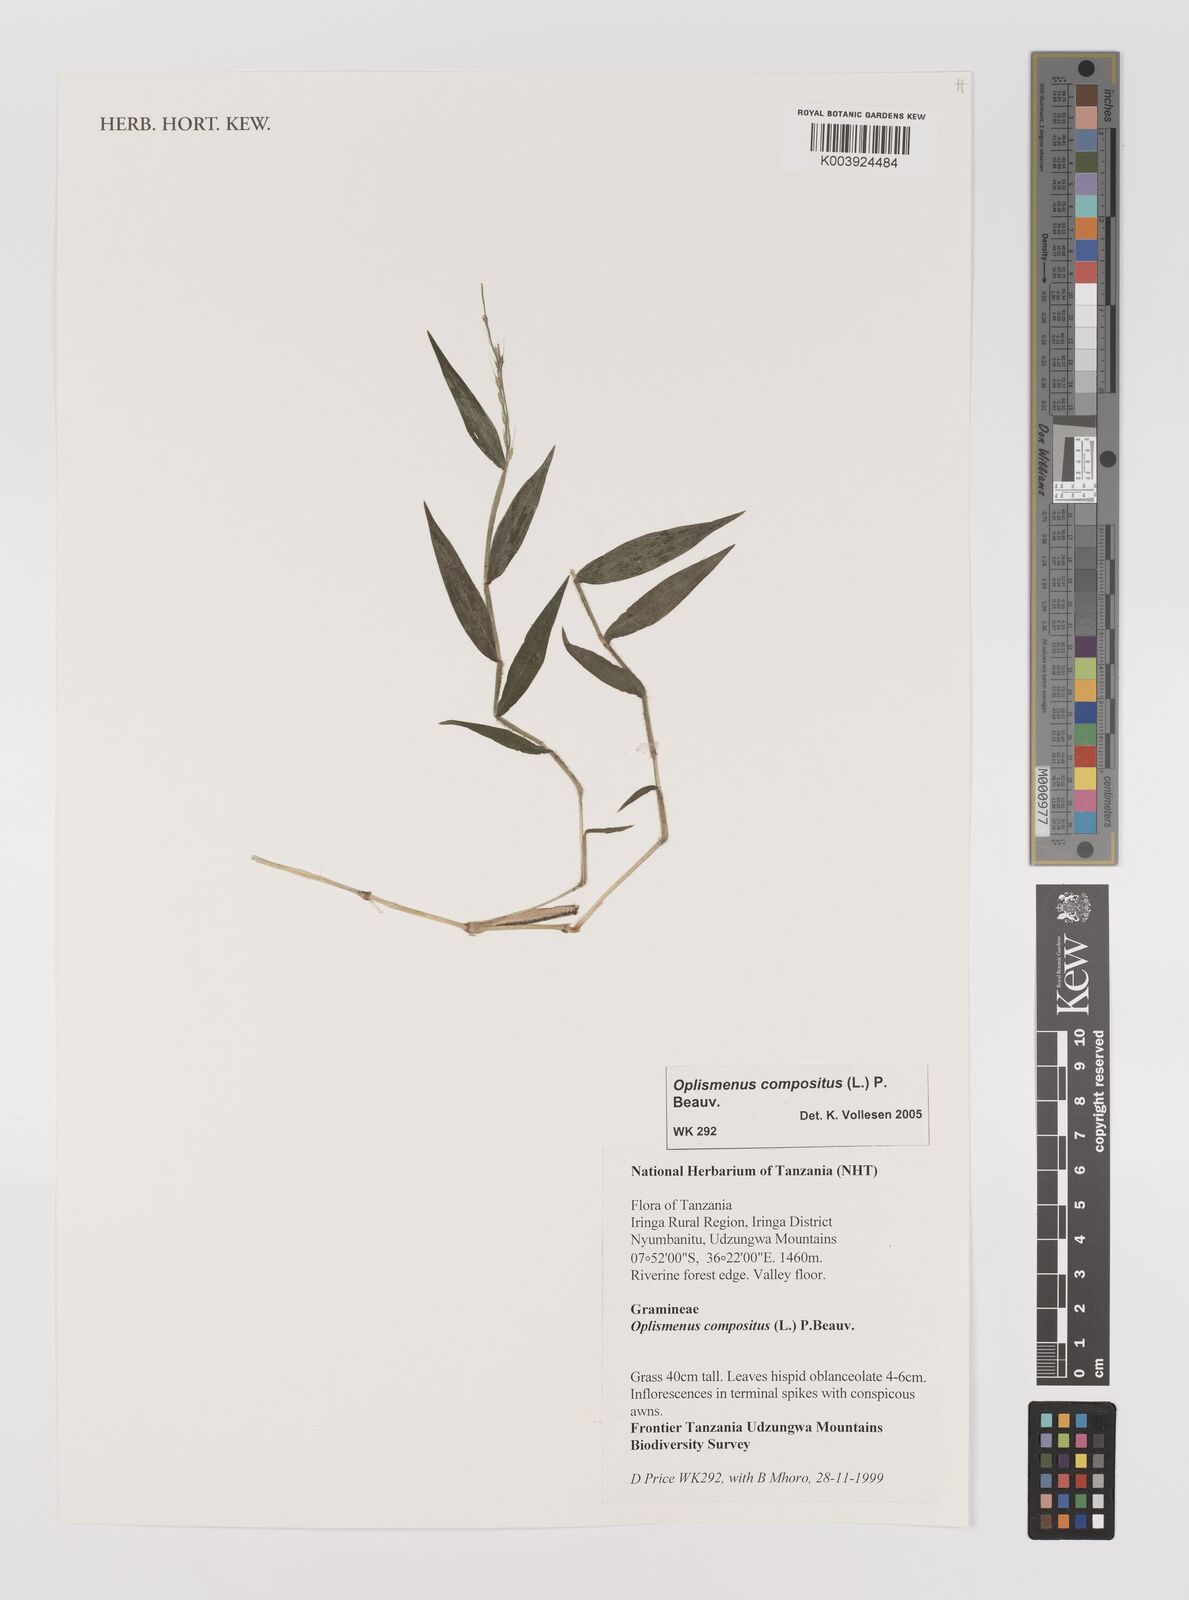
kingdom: Plantae
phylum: Tracheophyta
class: Liliopsida
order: Poales
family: Poaceae
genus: Oplismenus
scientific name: Oplismenus compositus
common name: Running mountain grass
